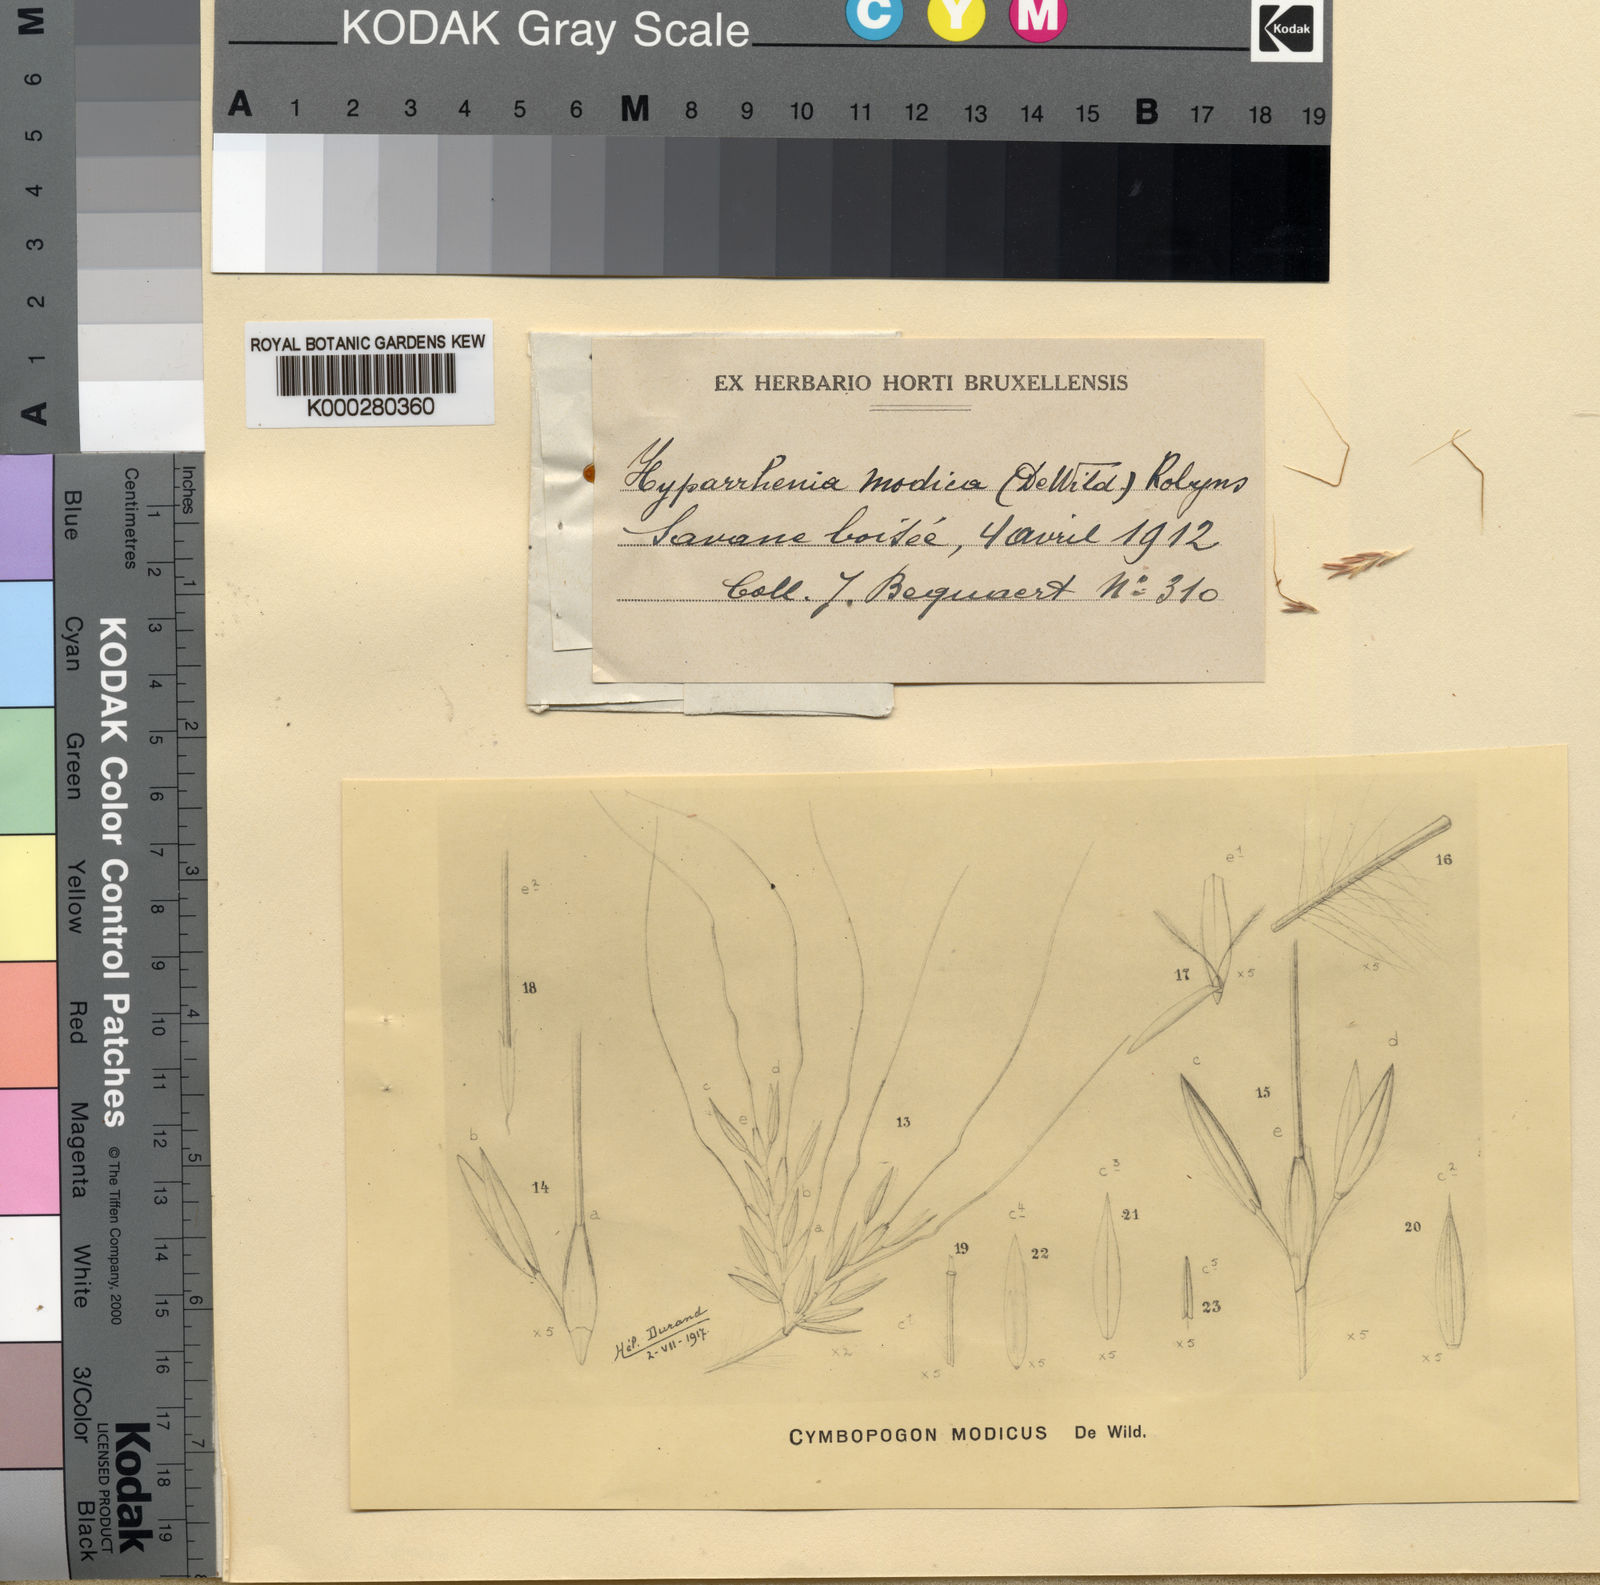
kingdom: Plantae
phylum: Tracheophyta
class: Liliopsida
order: Poales
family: Poaceae
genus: Hyparrhenia
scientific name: Hyparrhenia hirta
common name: Thatching grass
